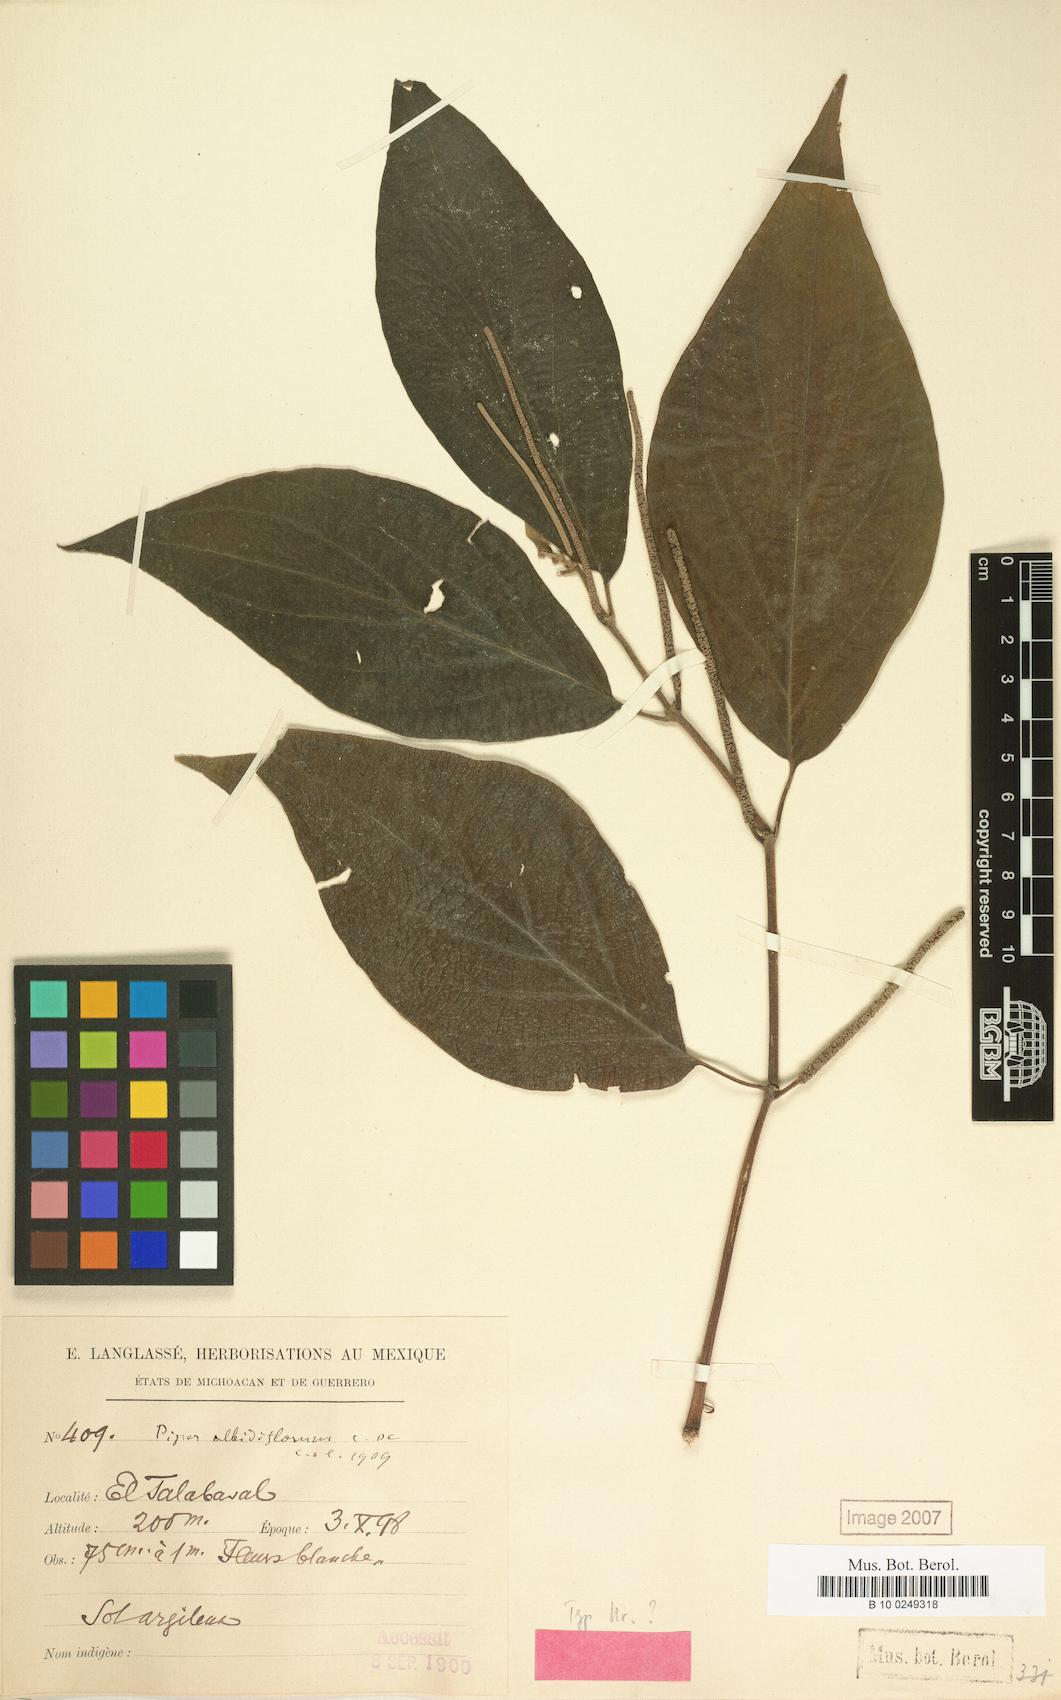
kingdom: Plantae
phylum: Tracheophyta
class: Magnoliopsida
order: Piperales
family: Piperaceae
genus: Piper
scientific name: Piper pseudofuligineum
